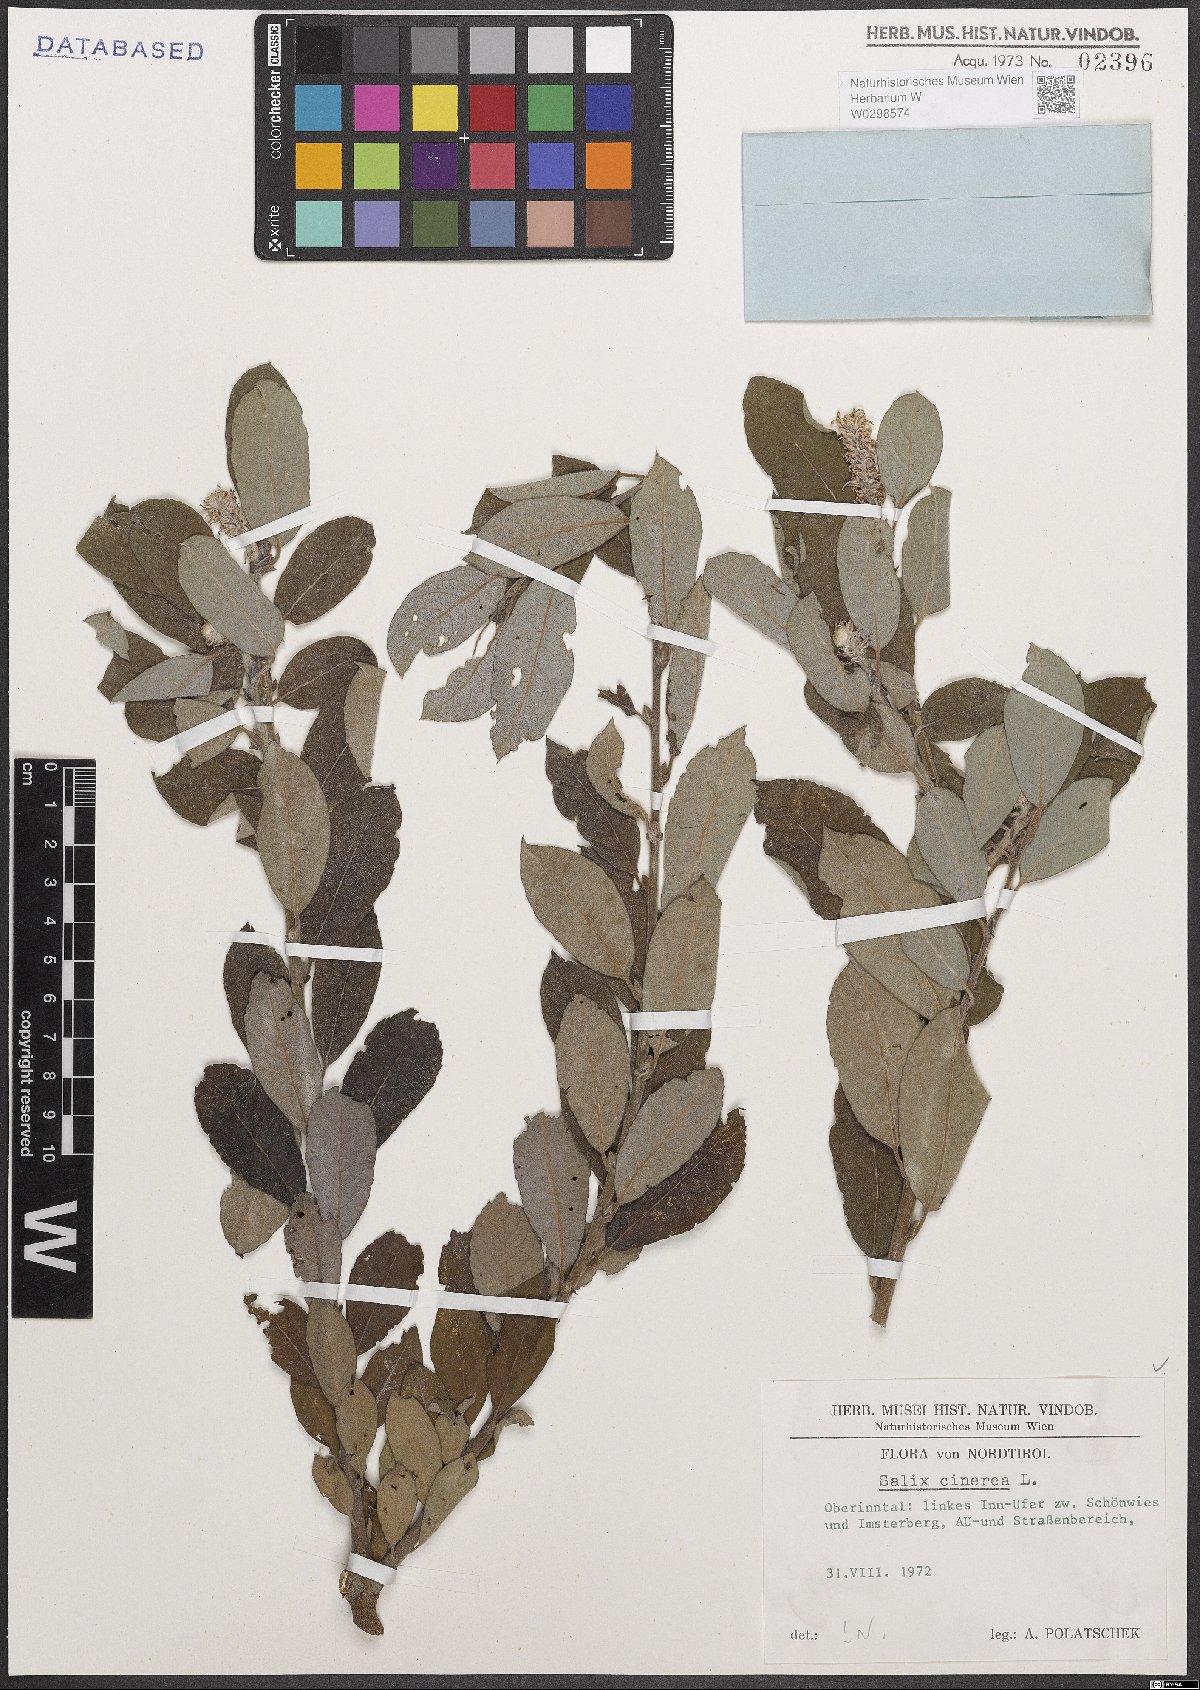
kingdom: Plantae
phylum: Tracheophyta
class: Magnoliopsida
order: Malpighiales
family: Salicaceae
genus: Salix
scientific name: Salix cinerea
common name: Common sallow
